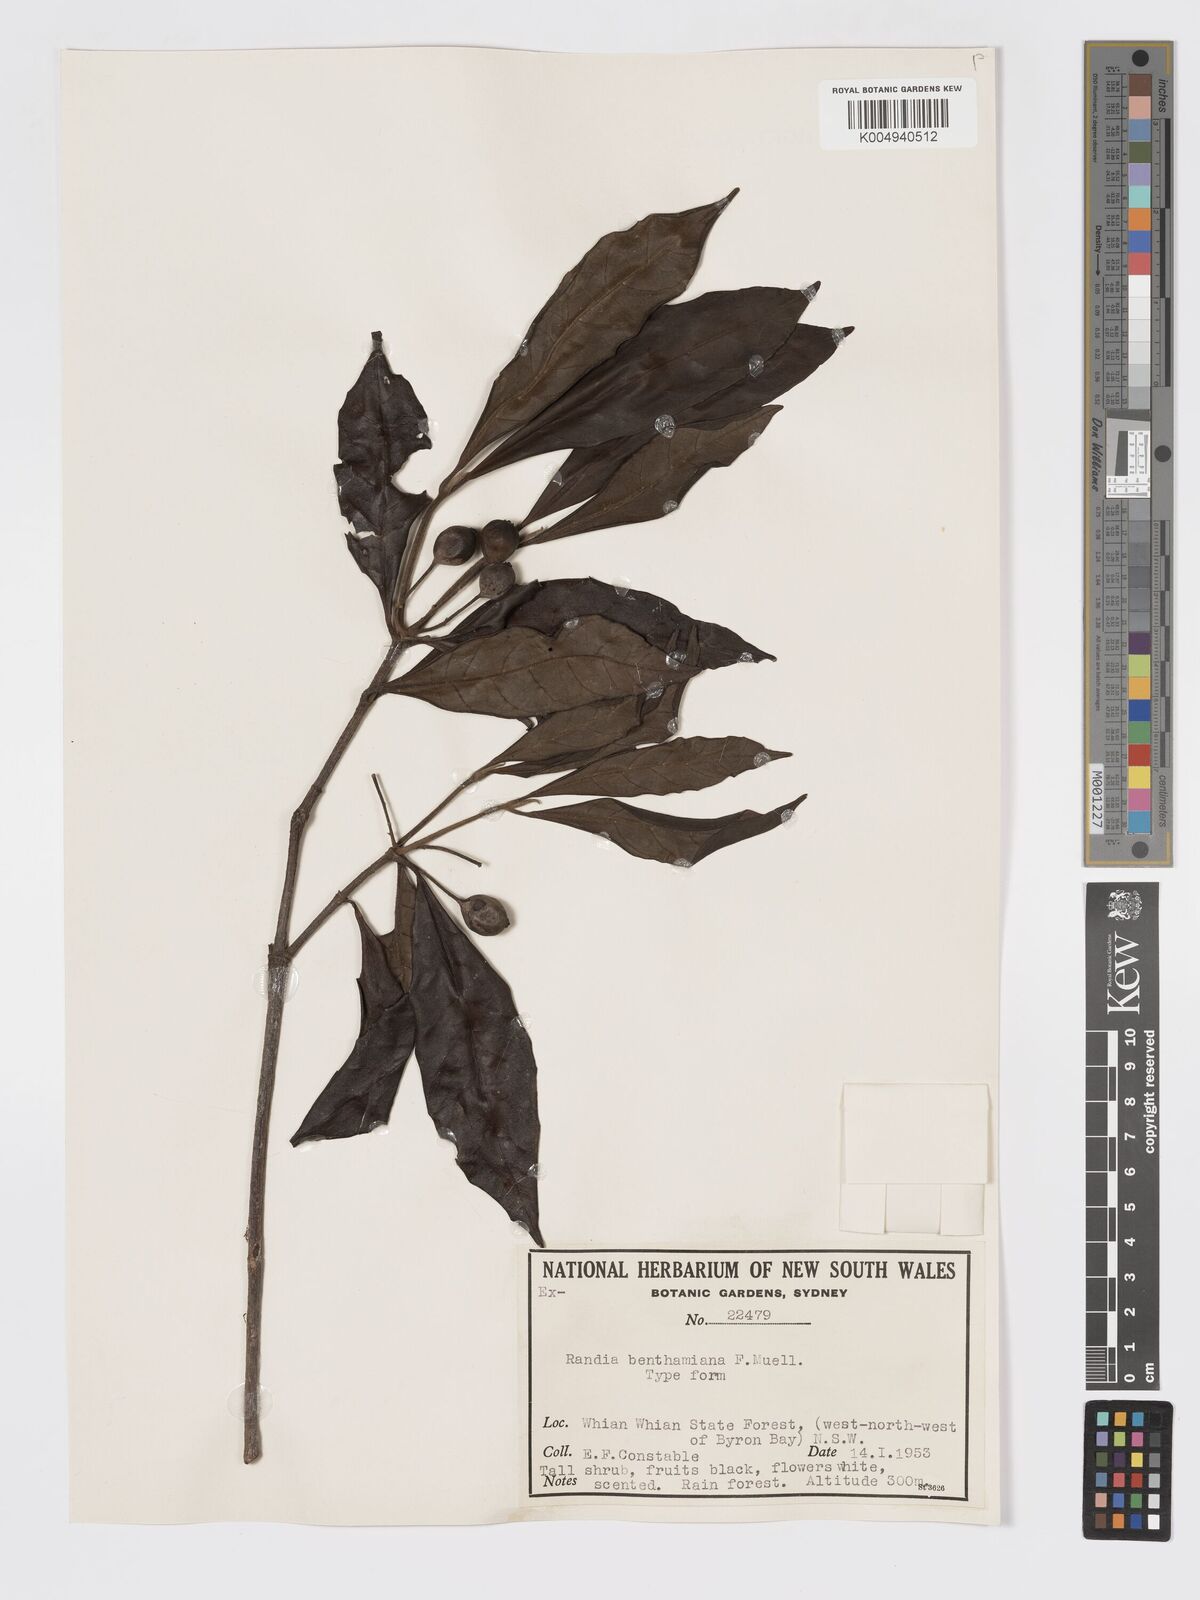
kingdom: Plantae
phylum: Tracheophyta
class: Magnoliopsida
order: Gentianales
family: Rubiaceae
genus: Atractocarpus
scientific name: Atractocarpus benthamianus
